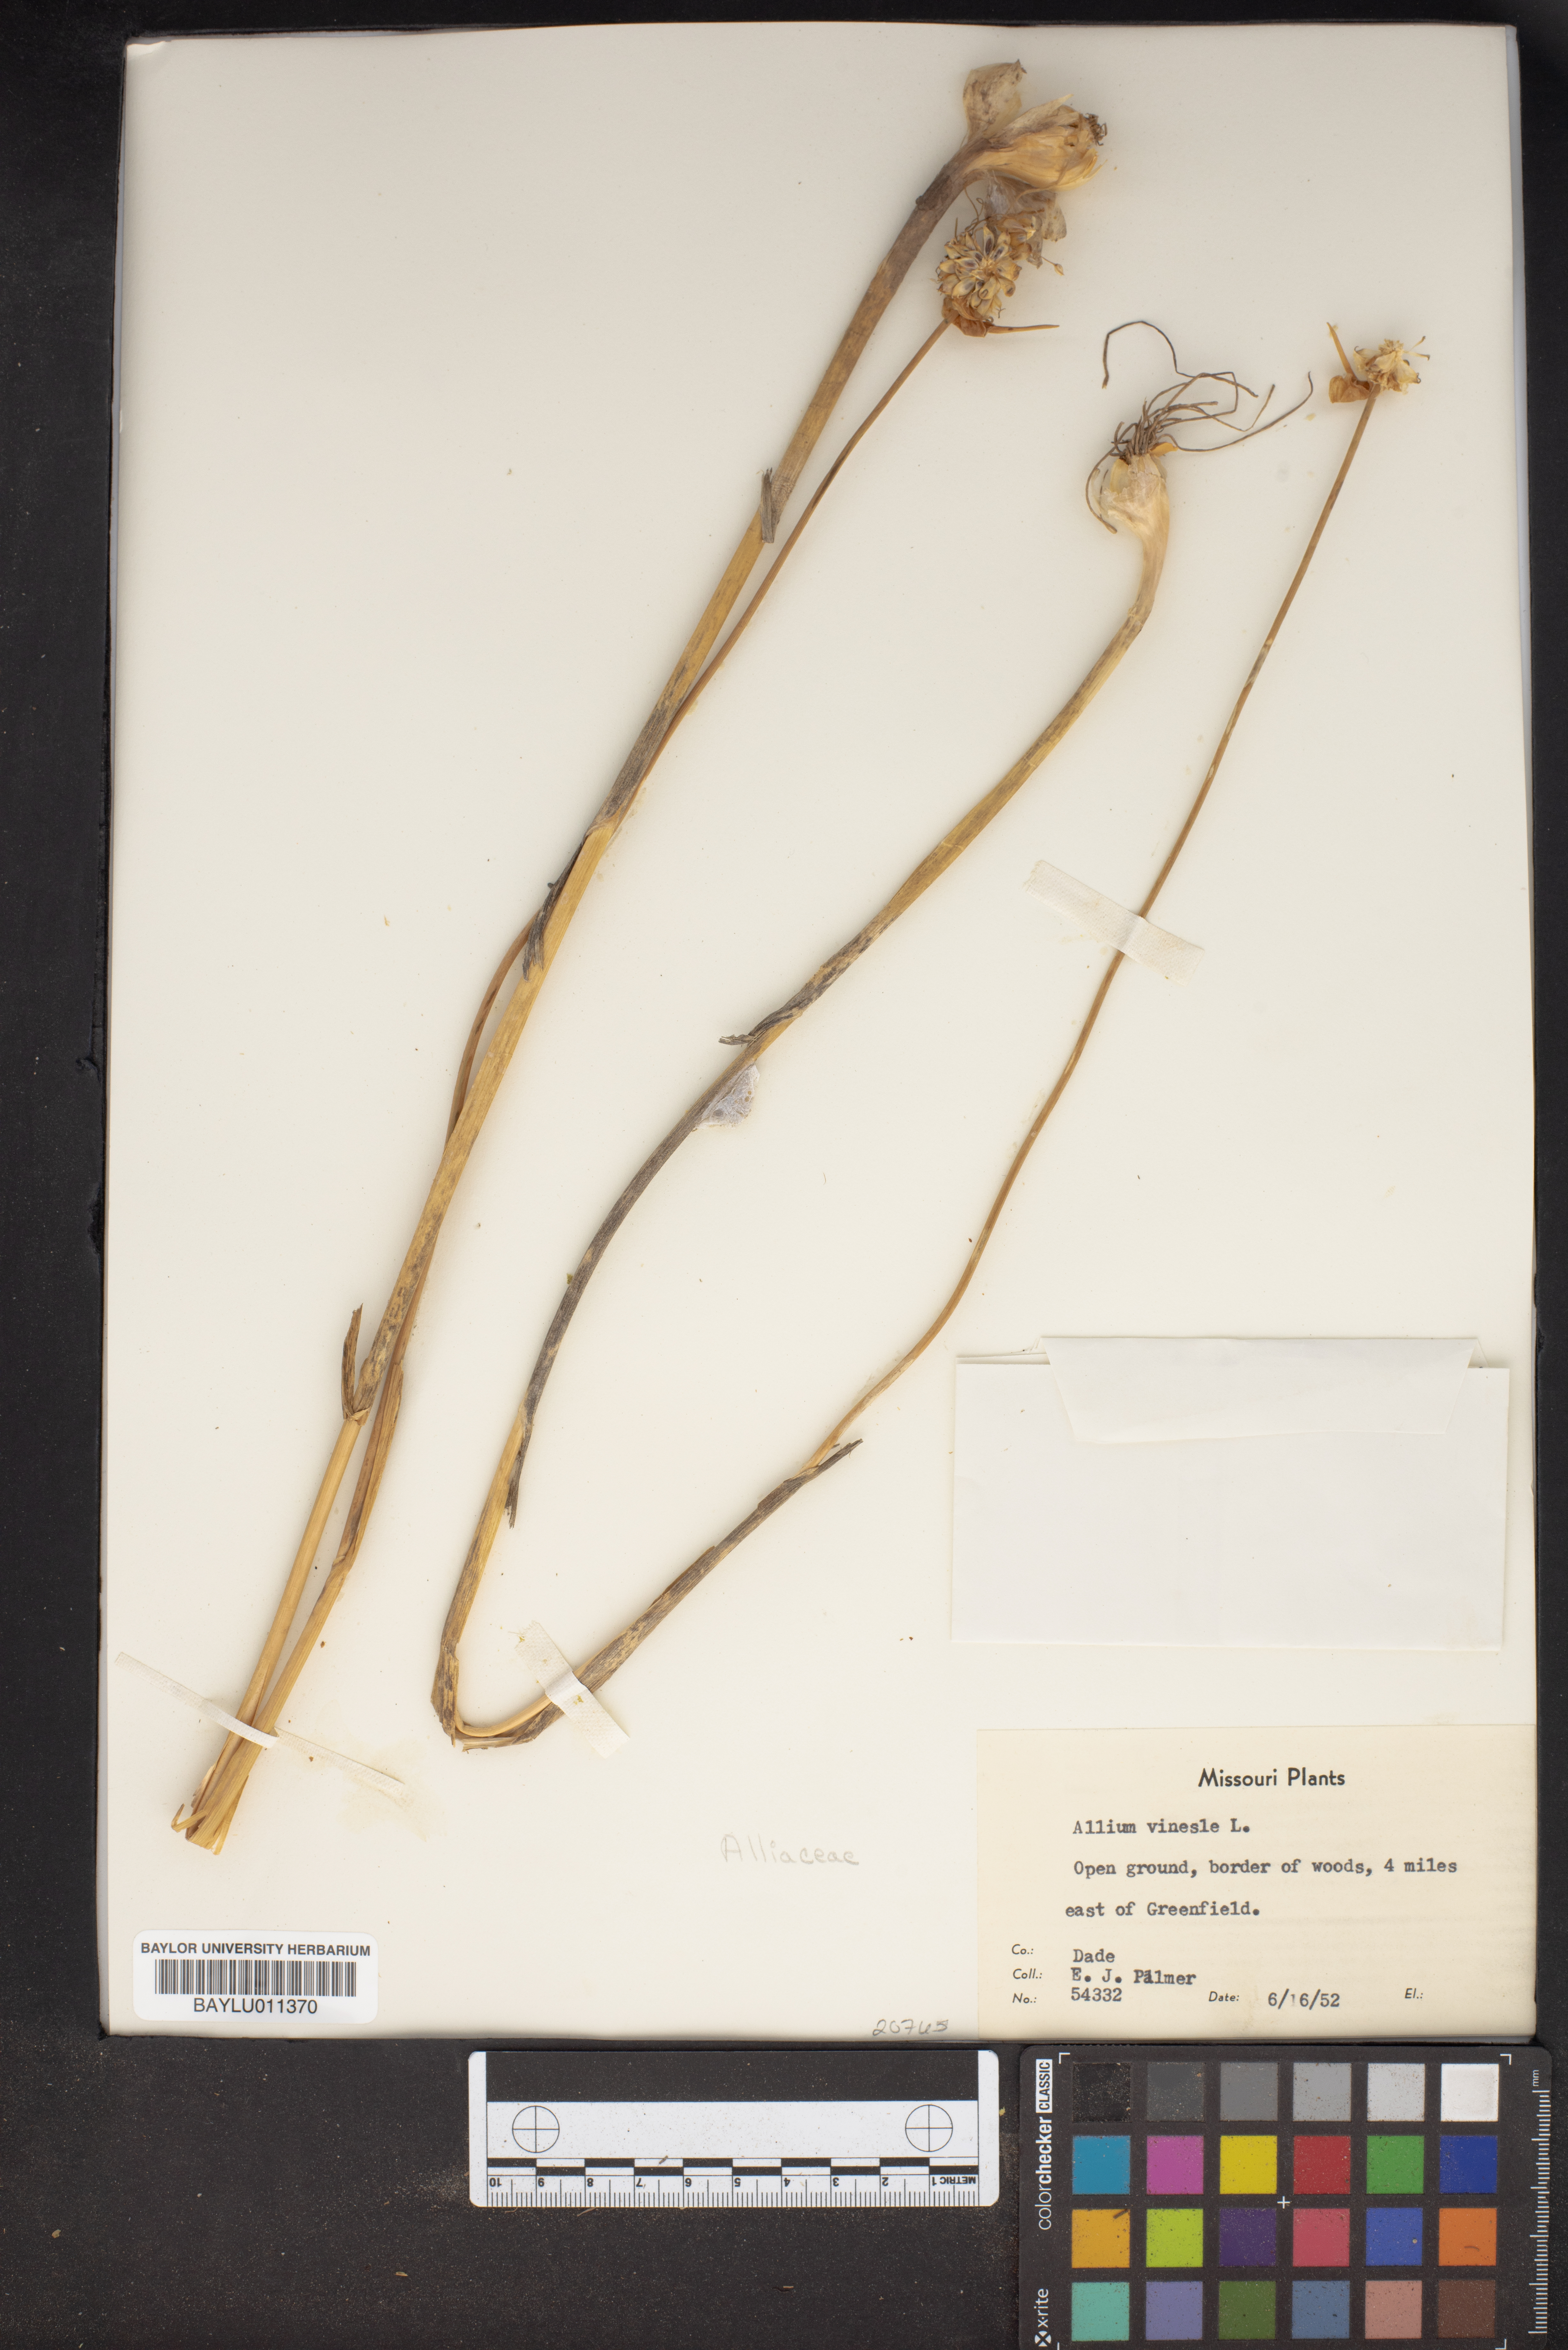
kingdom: Plantae
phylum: Tracheophyta
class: Liliopsida
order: Asparagales
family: Amaryllidaceae
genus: Allium
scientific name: Allium vineale
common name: Crow garlic
